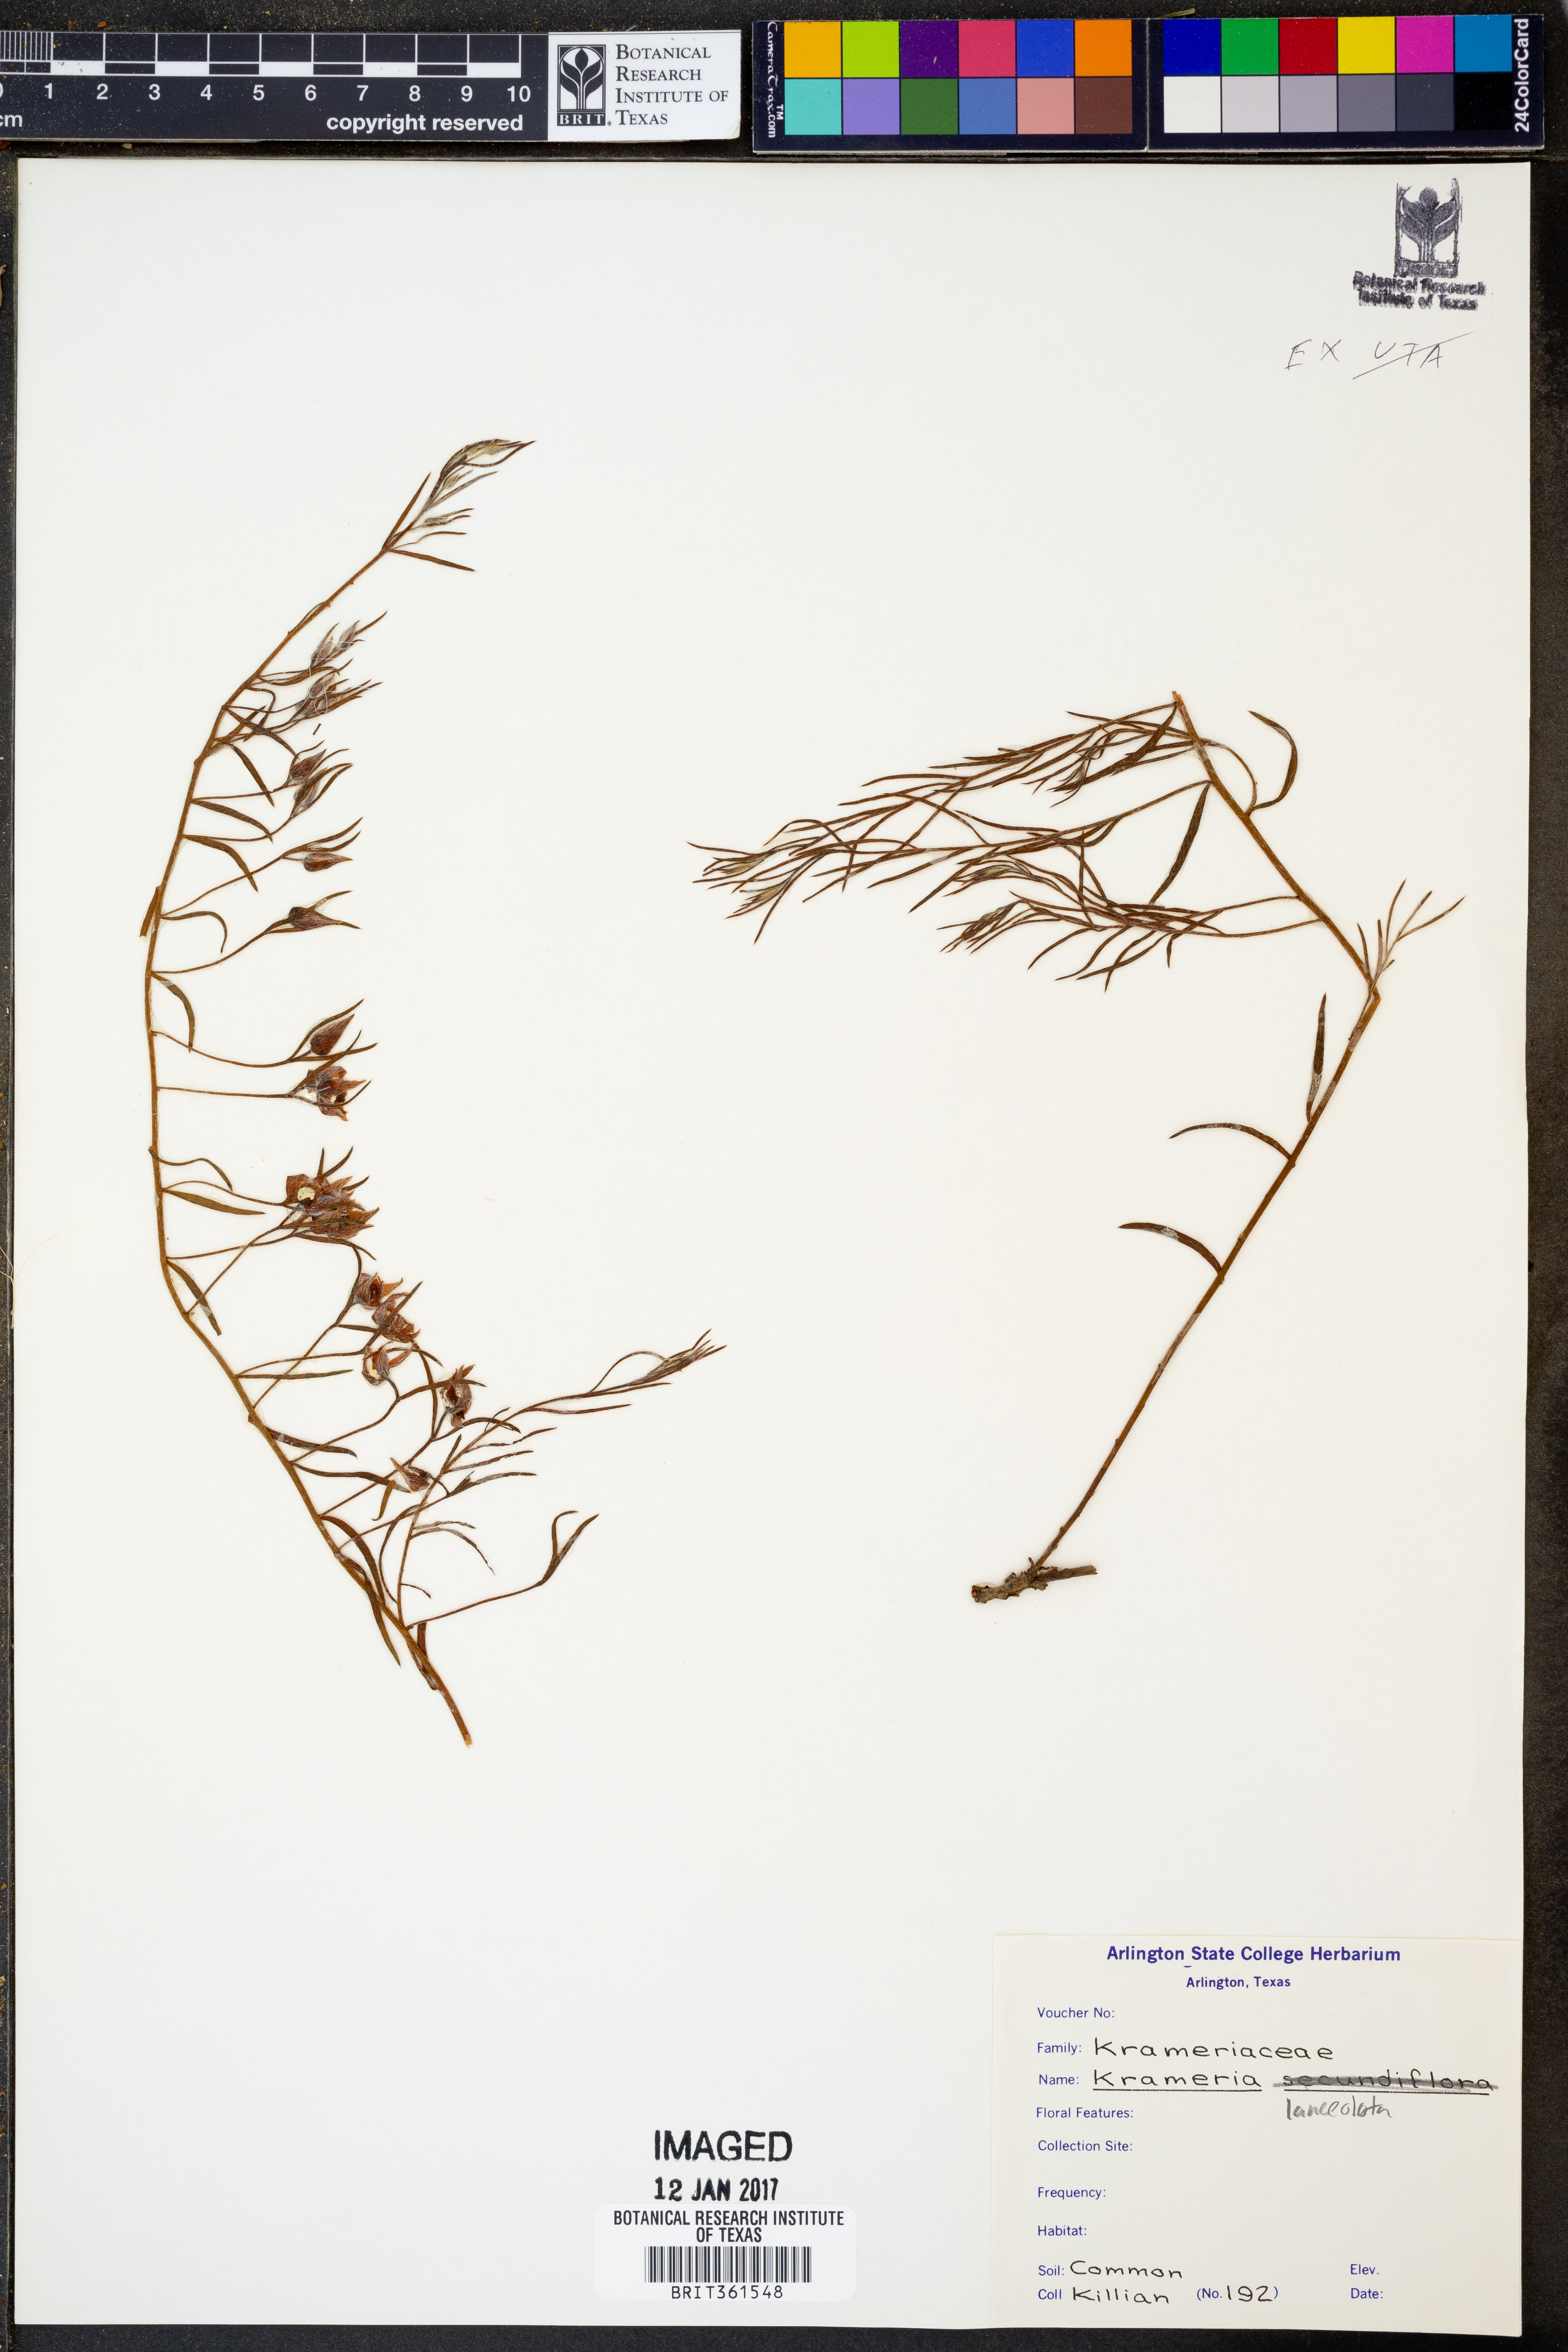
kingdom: Plantae
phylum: Tracheophyta
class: Magnoliopsida
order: Zygophyllales
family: Krameriaceae
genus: Krameria
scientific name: Krameria lanceolata
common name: Ratany
